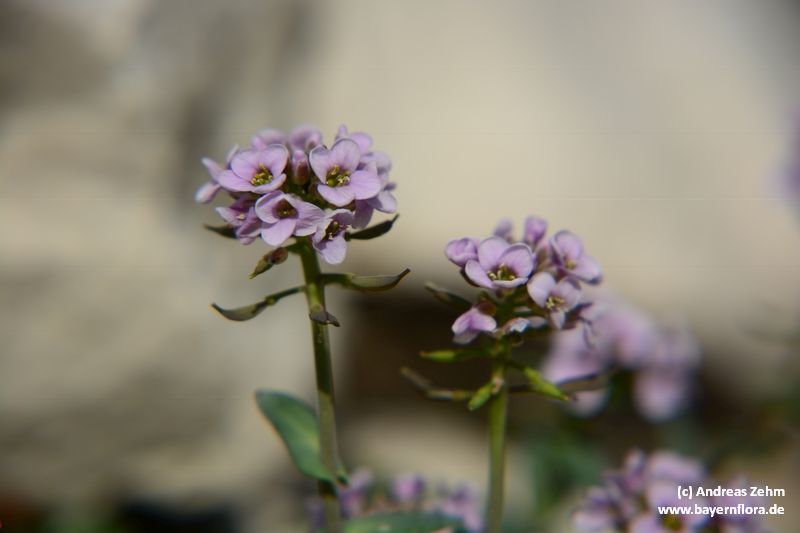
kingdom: Plantae
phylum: Tracheophyta
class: Magnoliopsida
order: Brassicales
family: Brassicaceae
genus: Noccaea
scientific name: Noccaea rotundifolia
